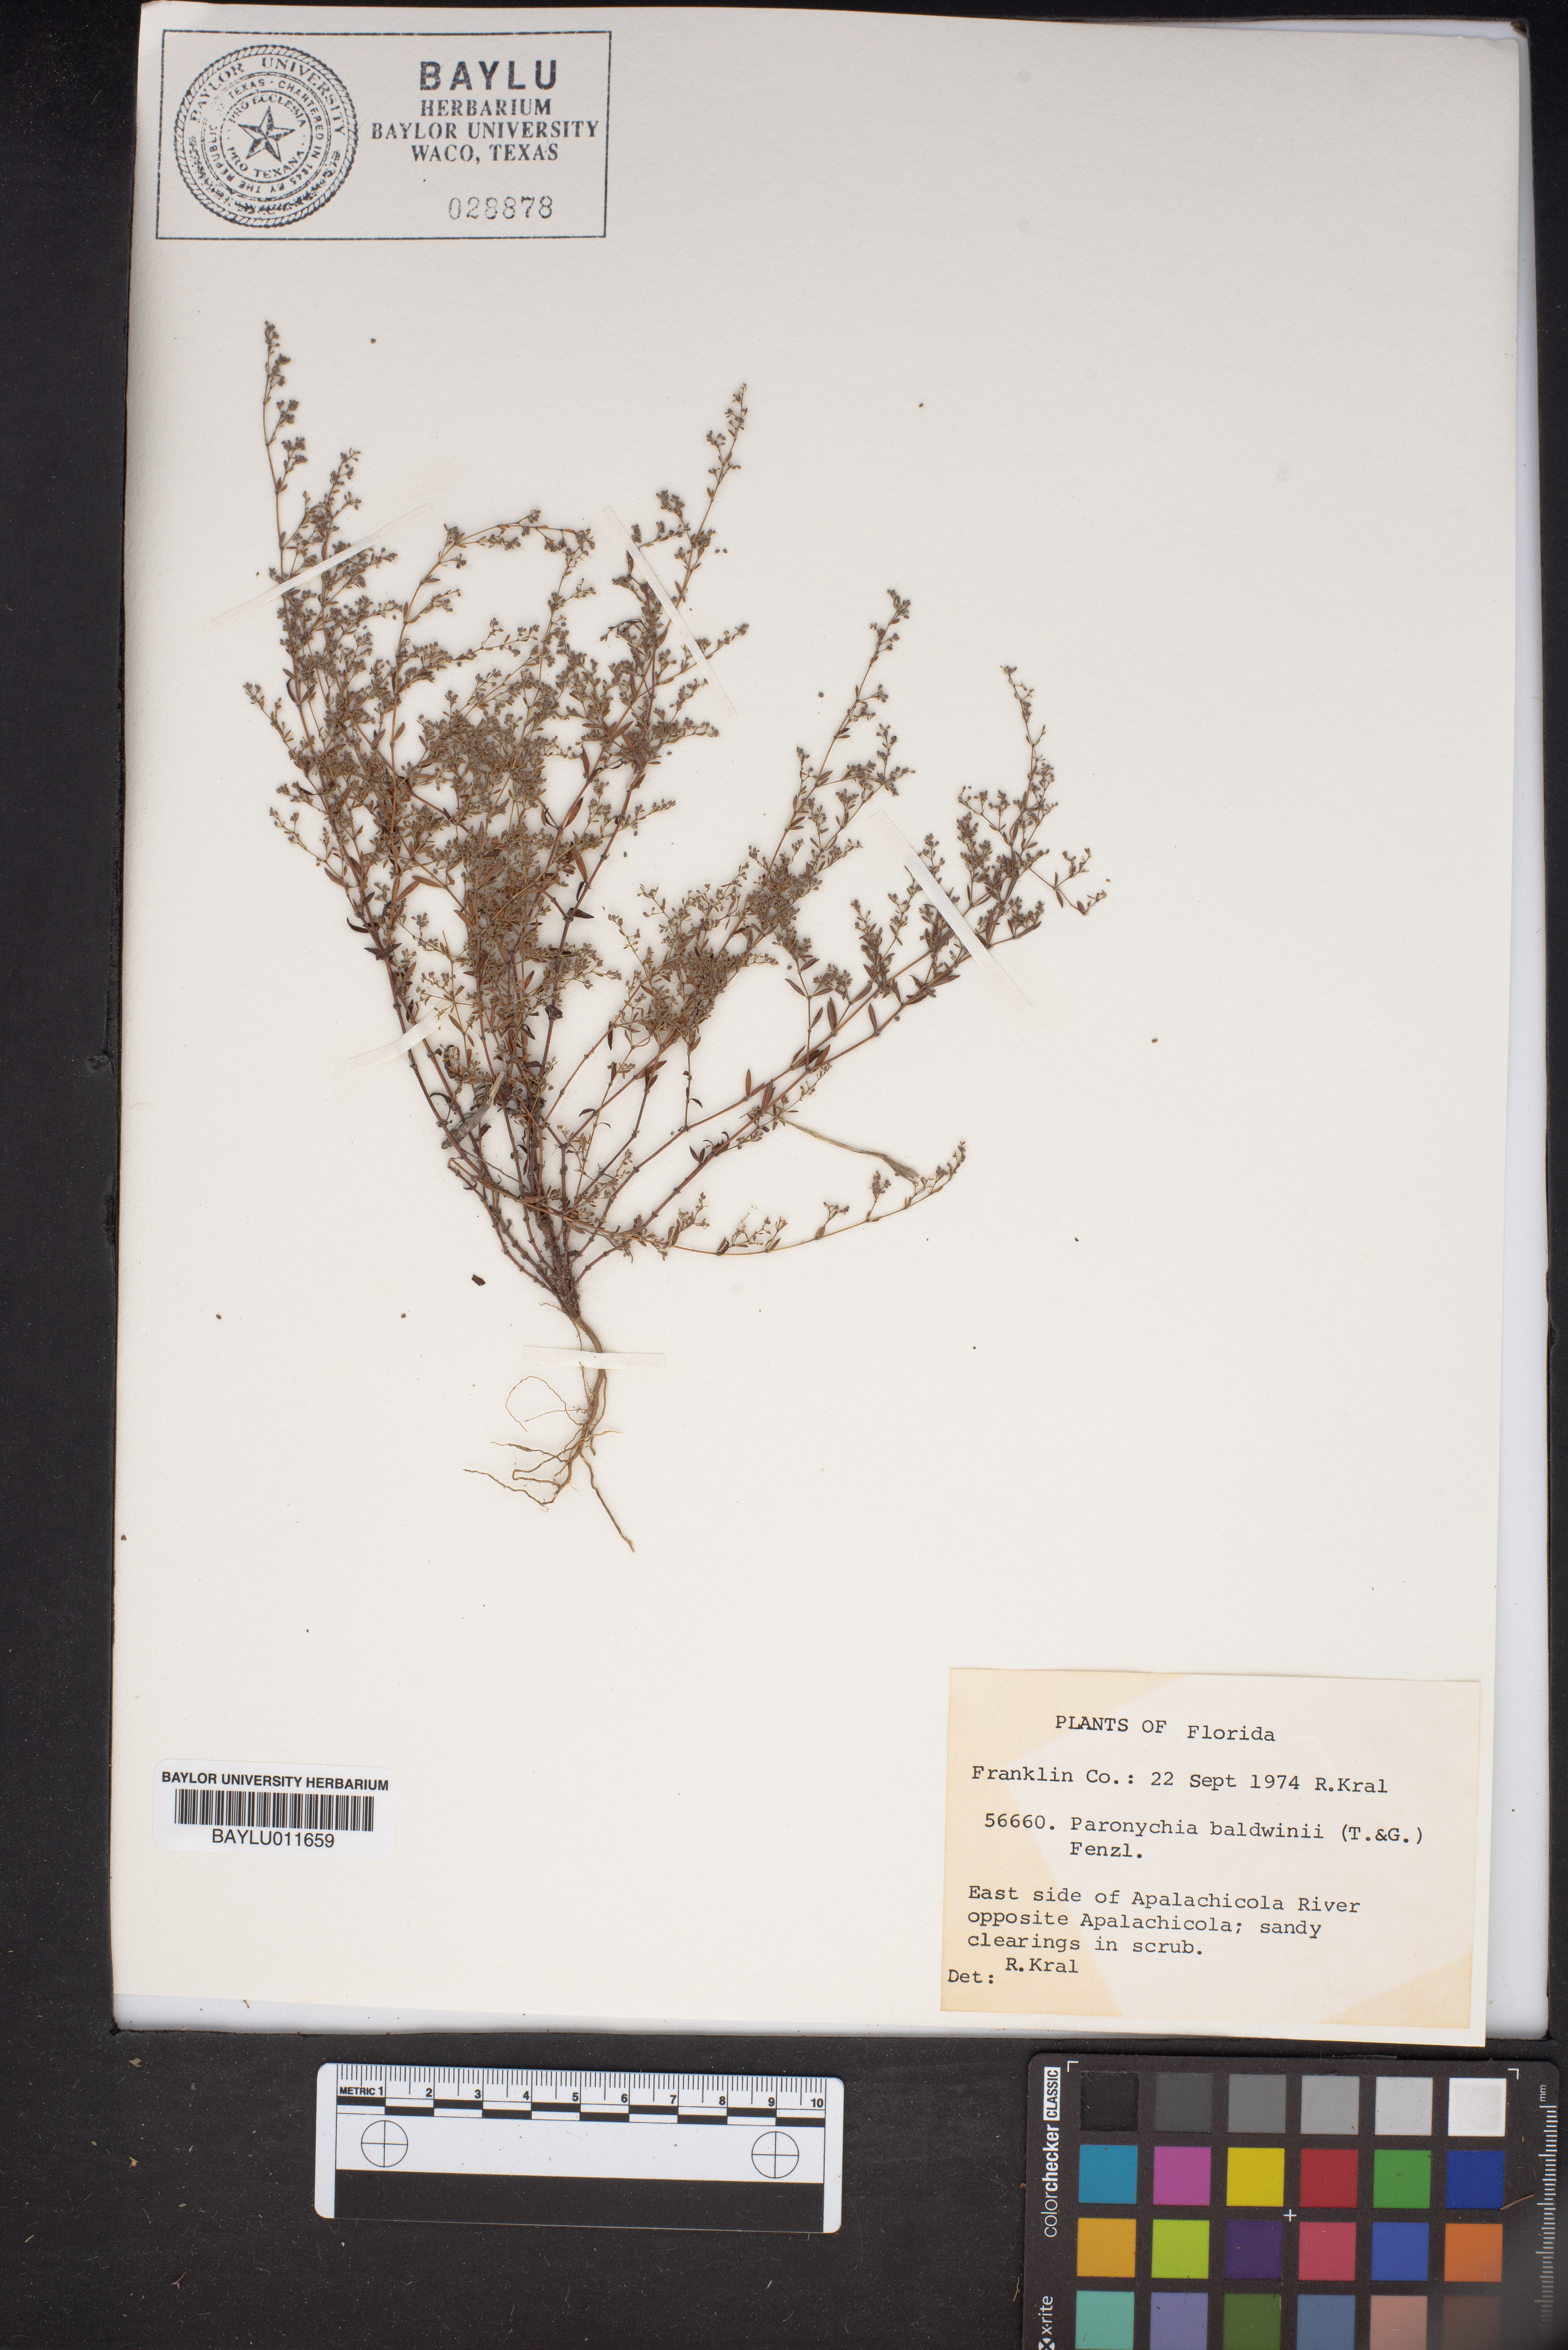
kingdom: Plantae
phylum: Tracheophyta
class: Magnoliopsida
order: Caryophyllales
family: Caryophyllaceae
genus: Paronychia
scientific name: Paronychia baldwinii
